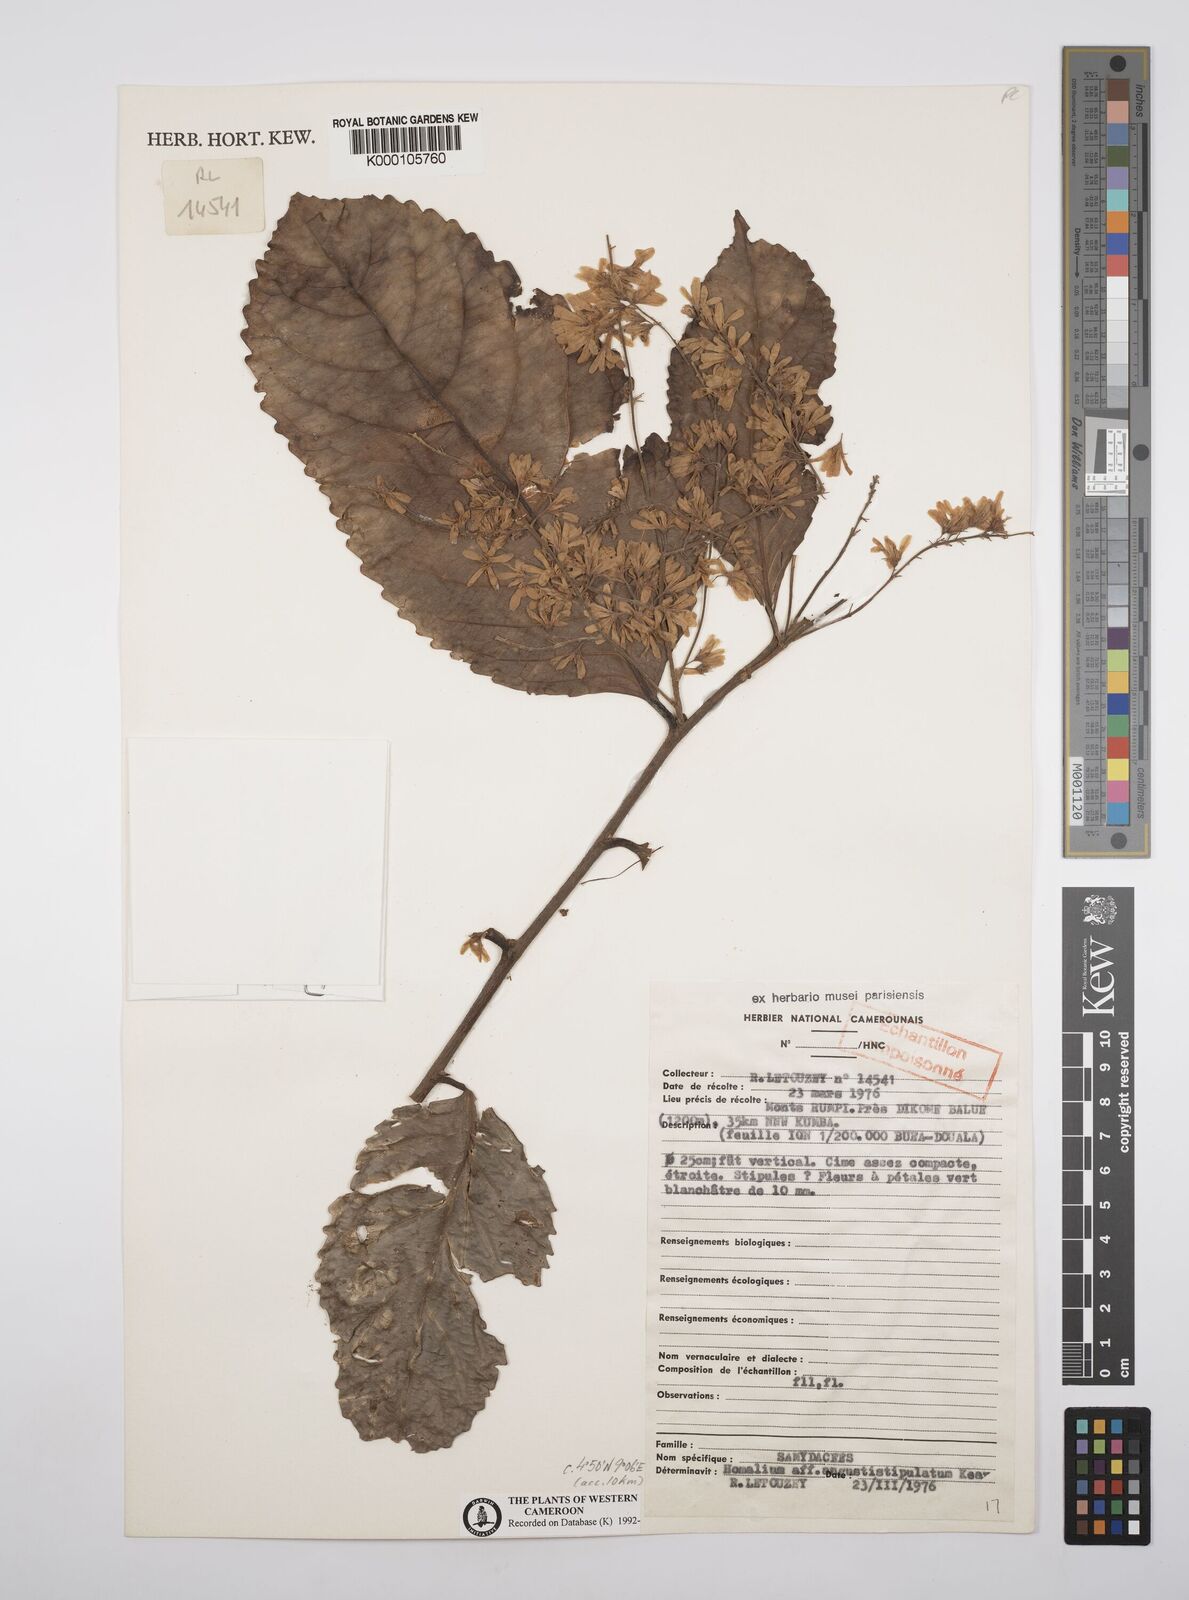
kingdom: Plantae
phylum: Tracheophyta
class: Magnoliopsida
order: Malpighiales
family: Salicaceae
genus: Homalium
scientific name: Homalium dewevrei
